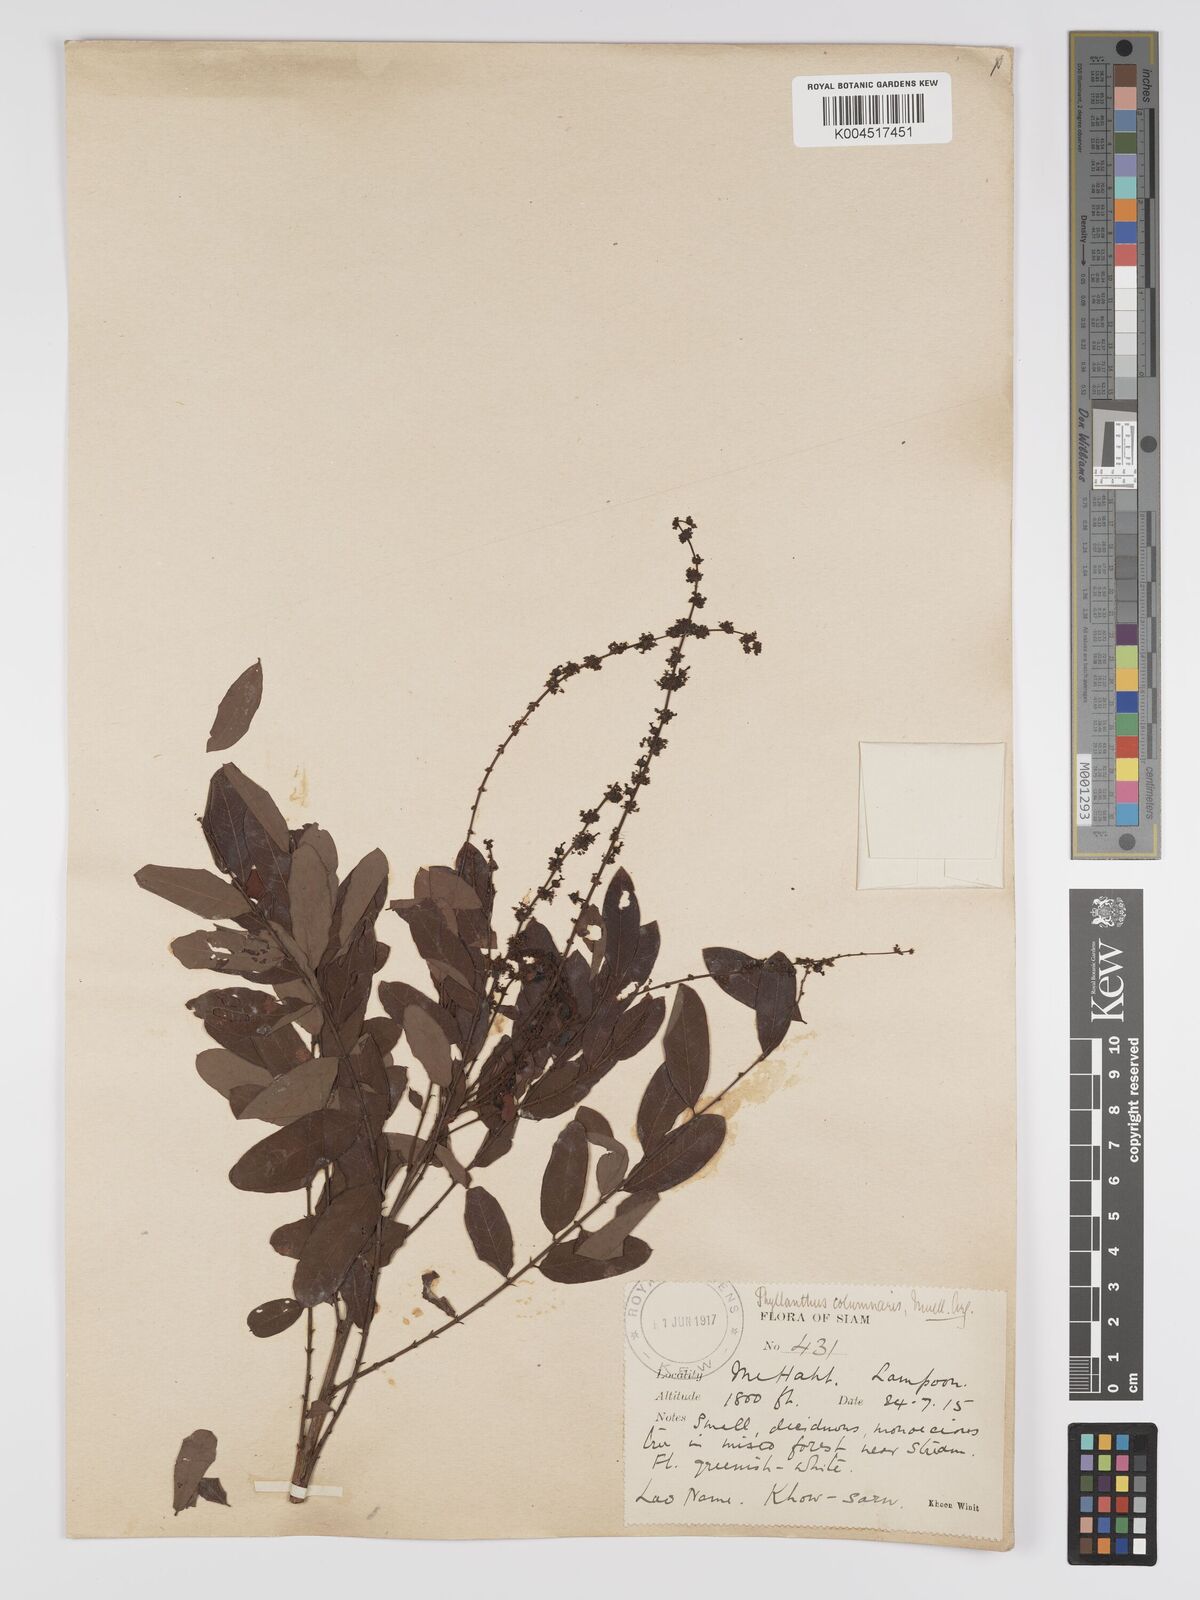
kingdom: Plantae
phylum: Tracheophyta
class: Magnoliopsida
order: Malpighiales
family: Phyllanthaceae
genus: Phyllanthus
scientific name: Phyllanthus
